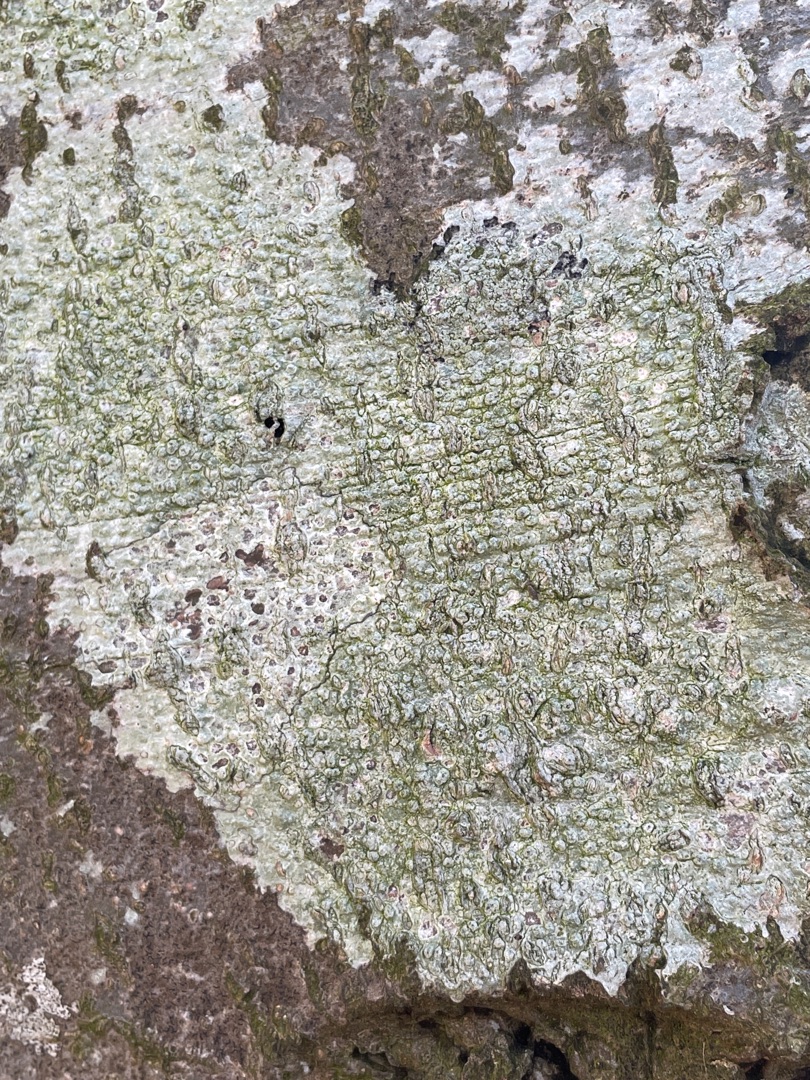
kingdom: Fungi
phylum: Ascomycota
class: Lecanoromycetes
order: Pertusariales
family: Pertusariaceae
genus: Pertusaria
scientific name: Pertusaria hymenea
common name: Åben prikvortelav
